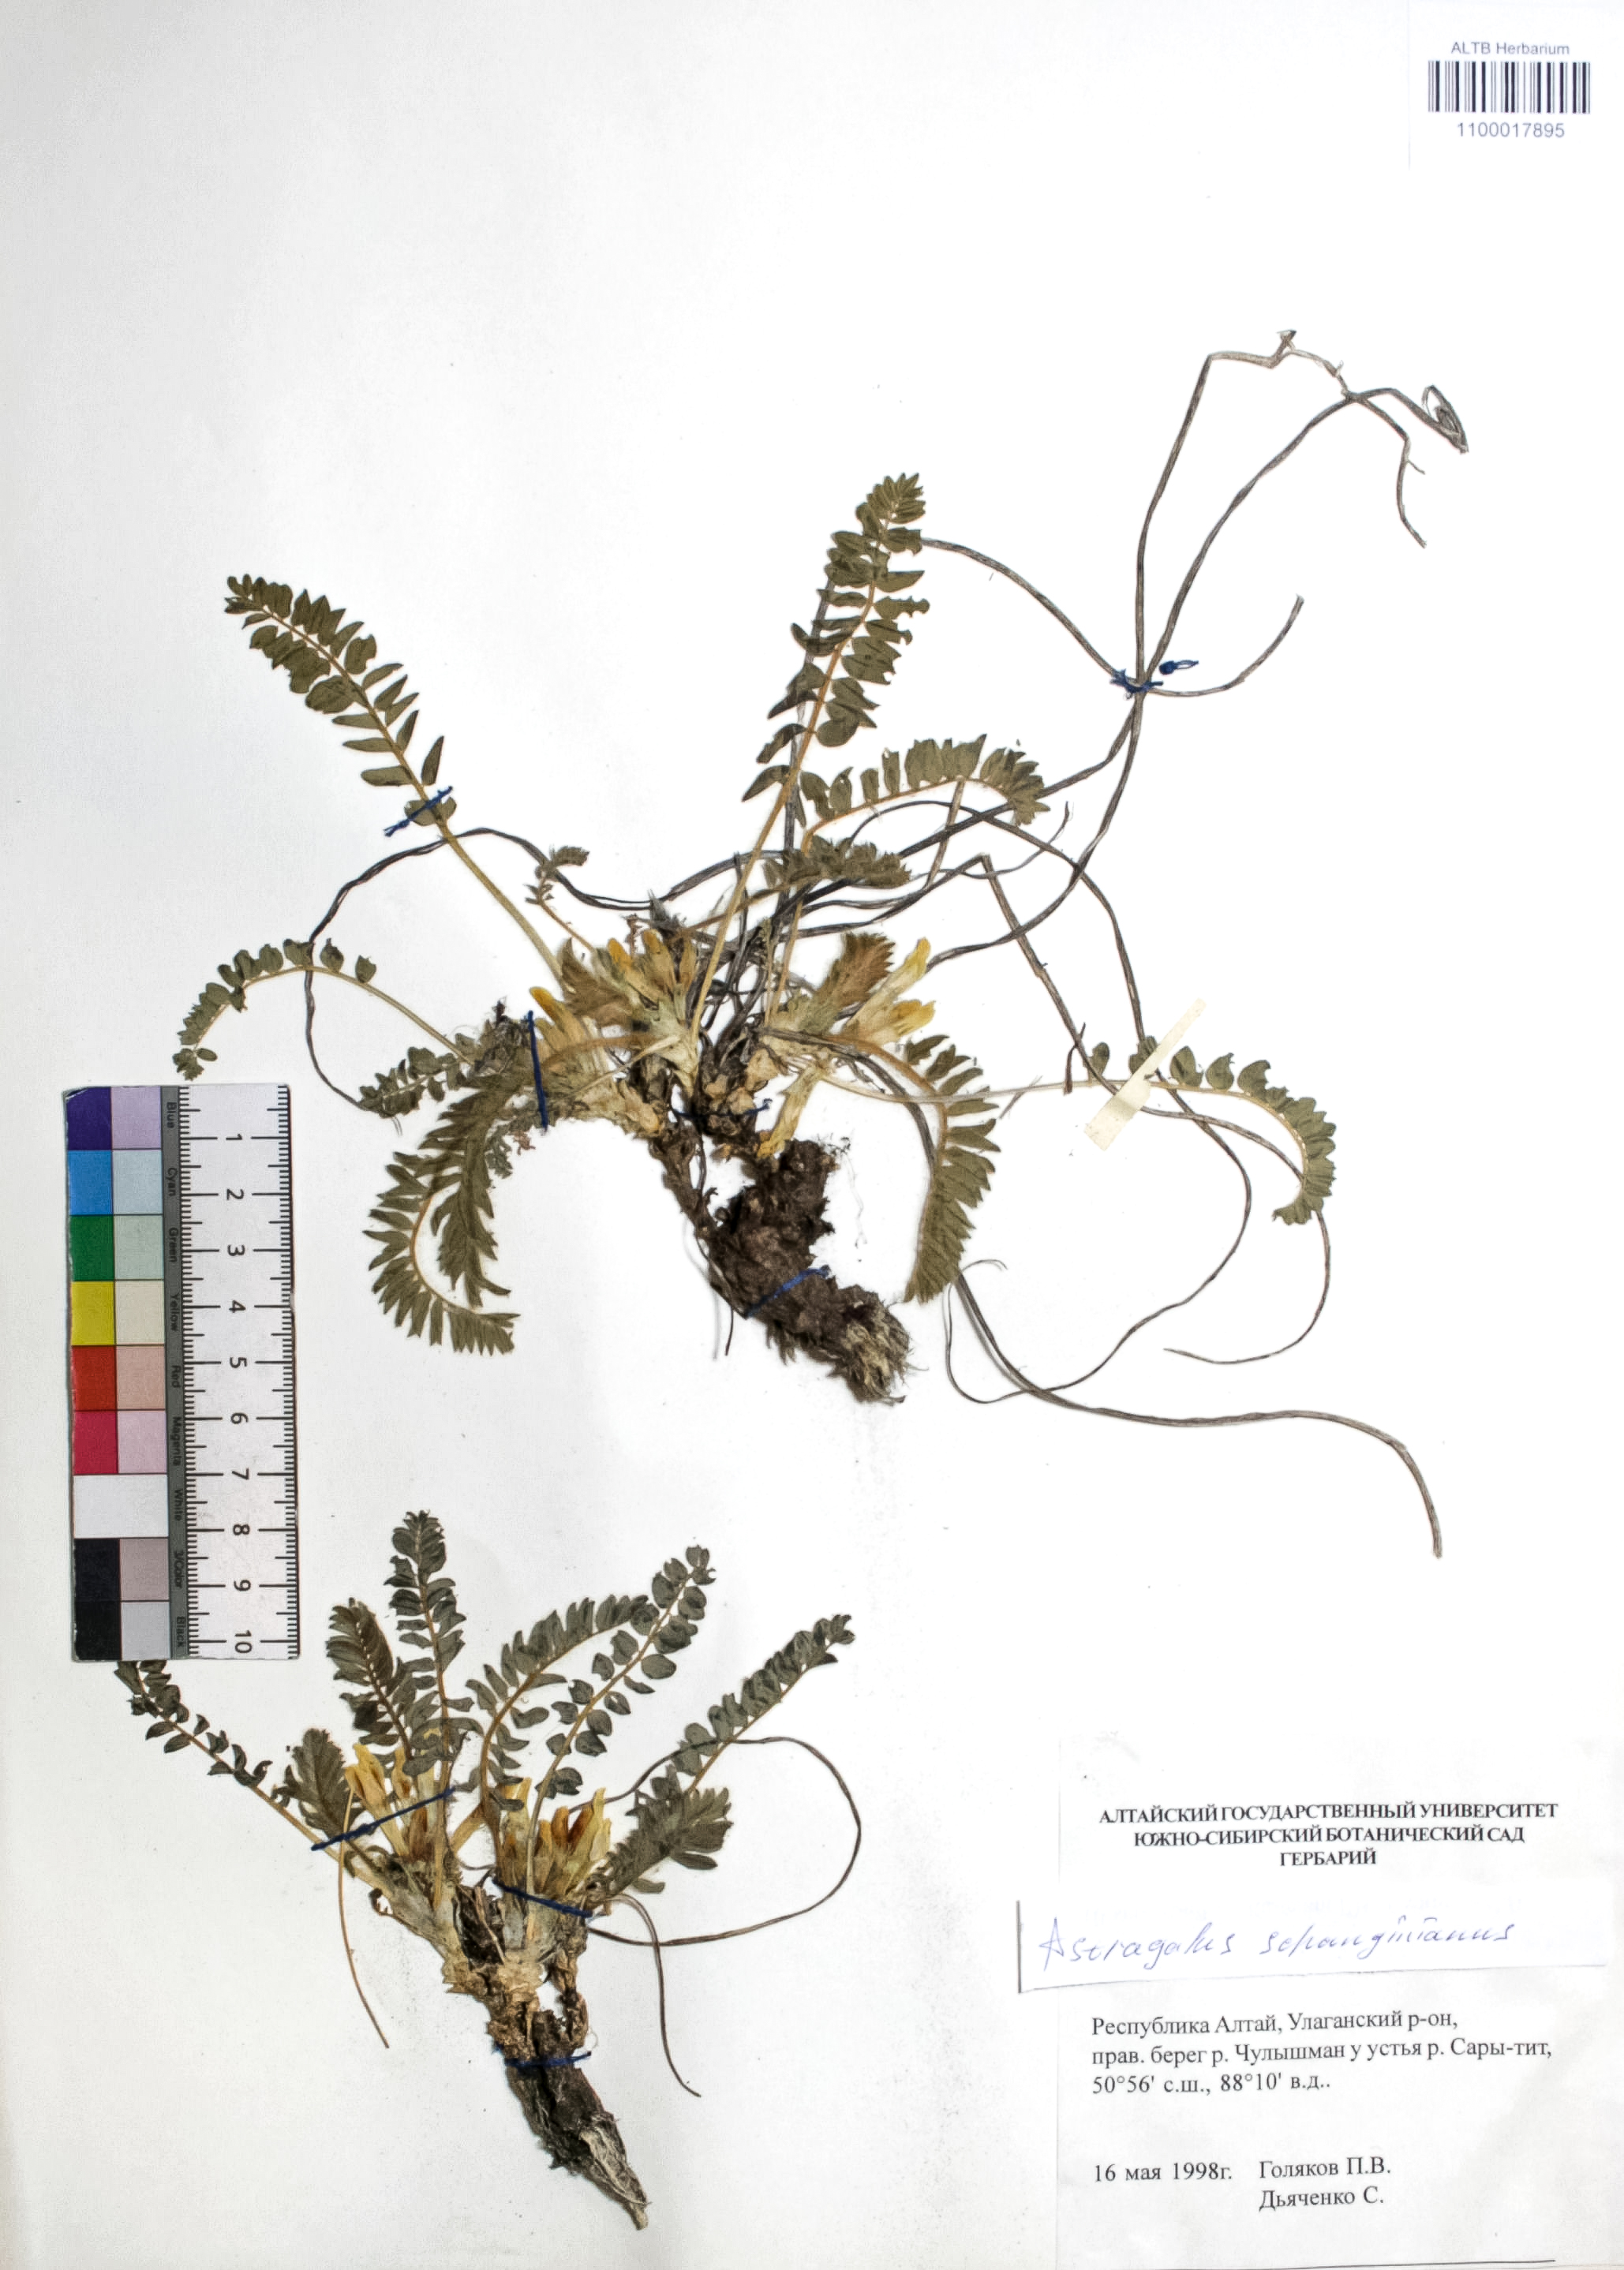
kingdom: Plantae
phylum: Tracheophyta
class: Magnoliopsida
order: Fabales
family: Fabaceae
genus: Astragalus
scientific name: Astragalus schanginianus
